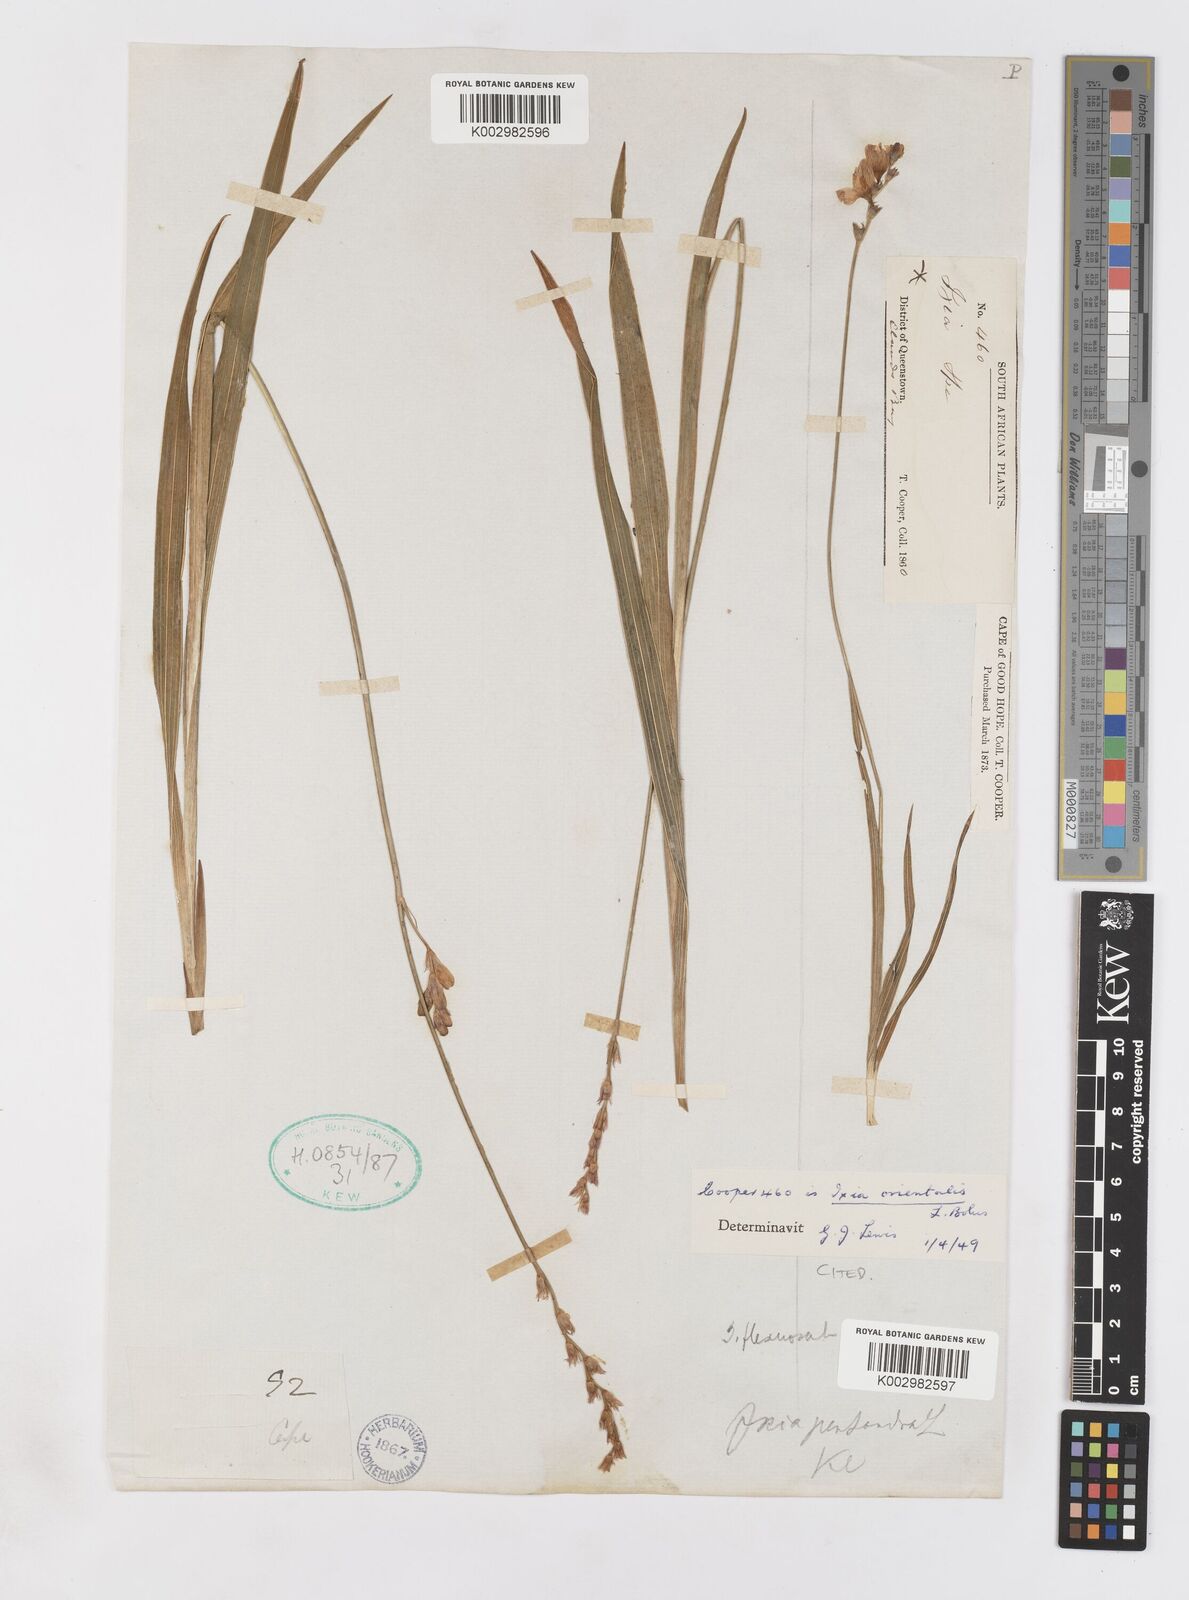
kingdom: Plantae
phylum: Tracheophyta
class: Liliopsida
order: Asparagales
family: Iridaceae
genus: Ixia
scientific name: Ixia orientalis
